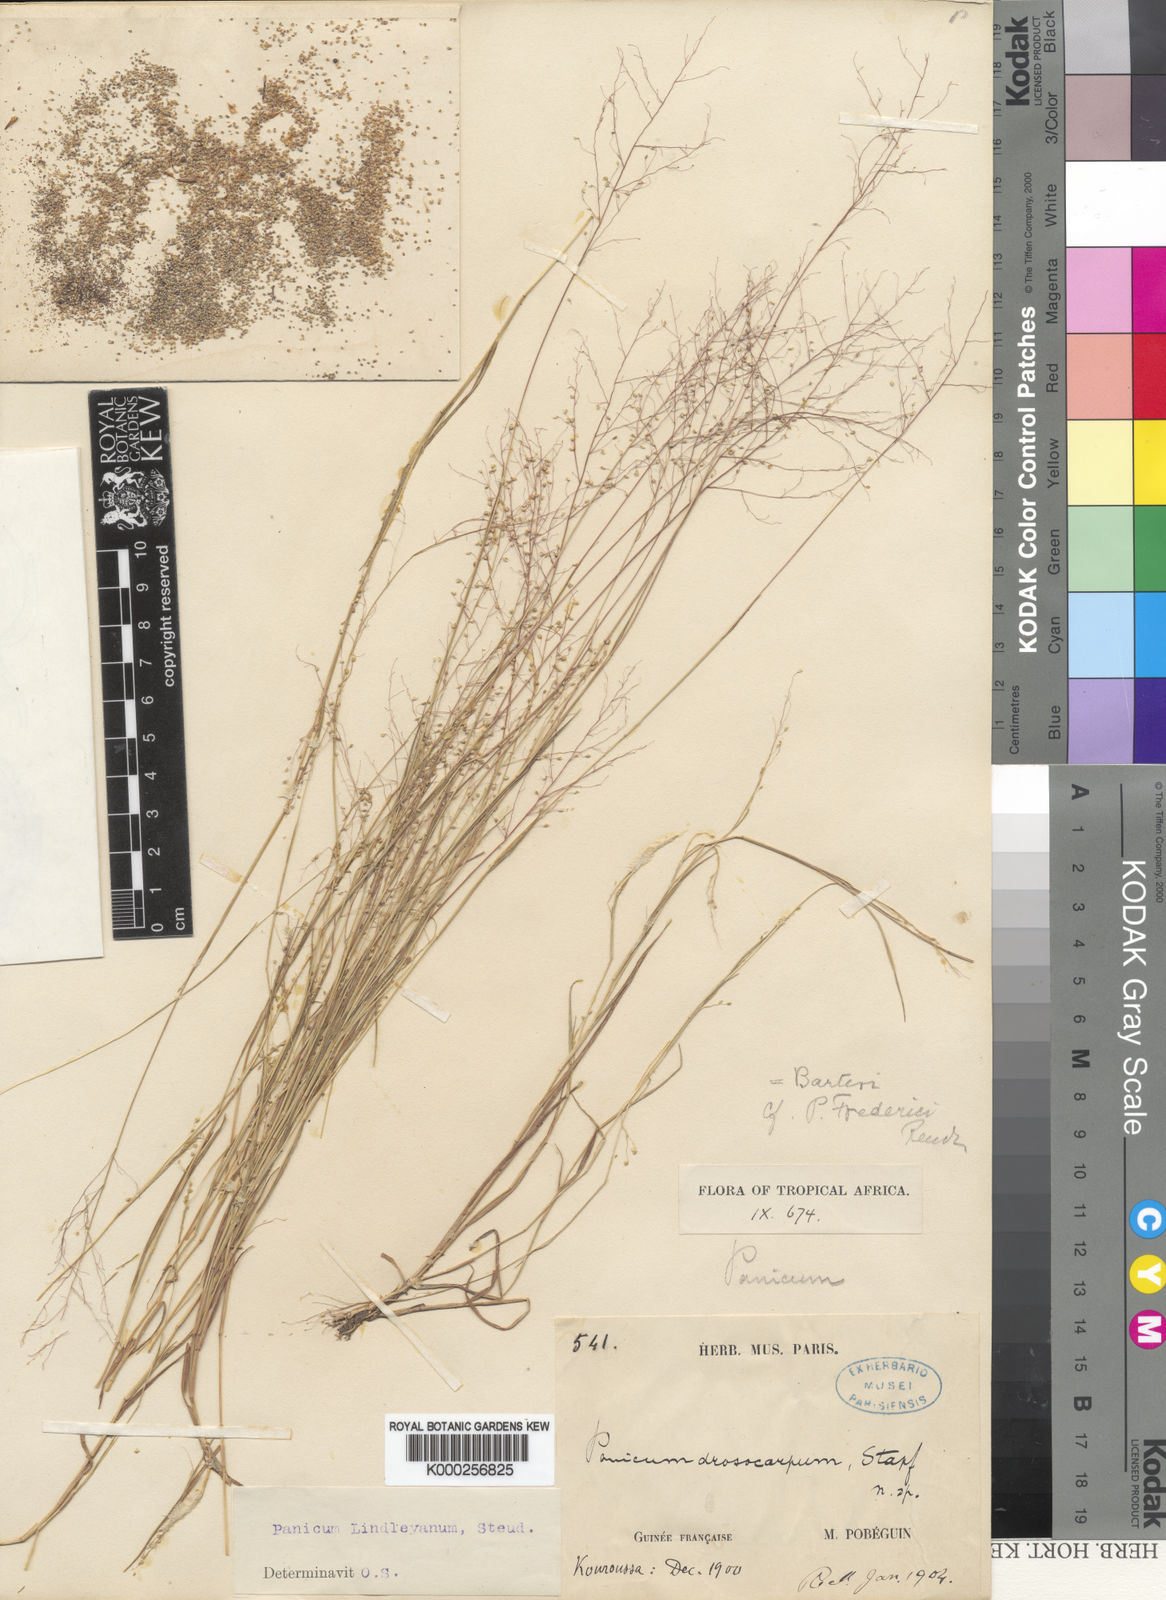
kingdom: Plantae
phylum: Tracheophyta
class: Liliopsida
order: Poales
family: Poaceae
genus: Panicum
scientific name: Panicum curviflorum
